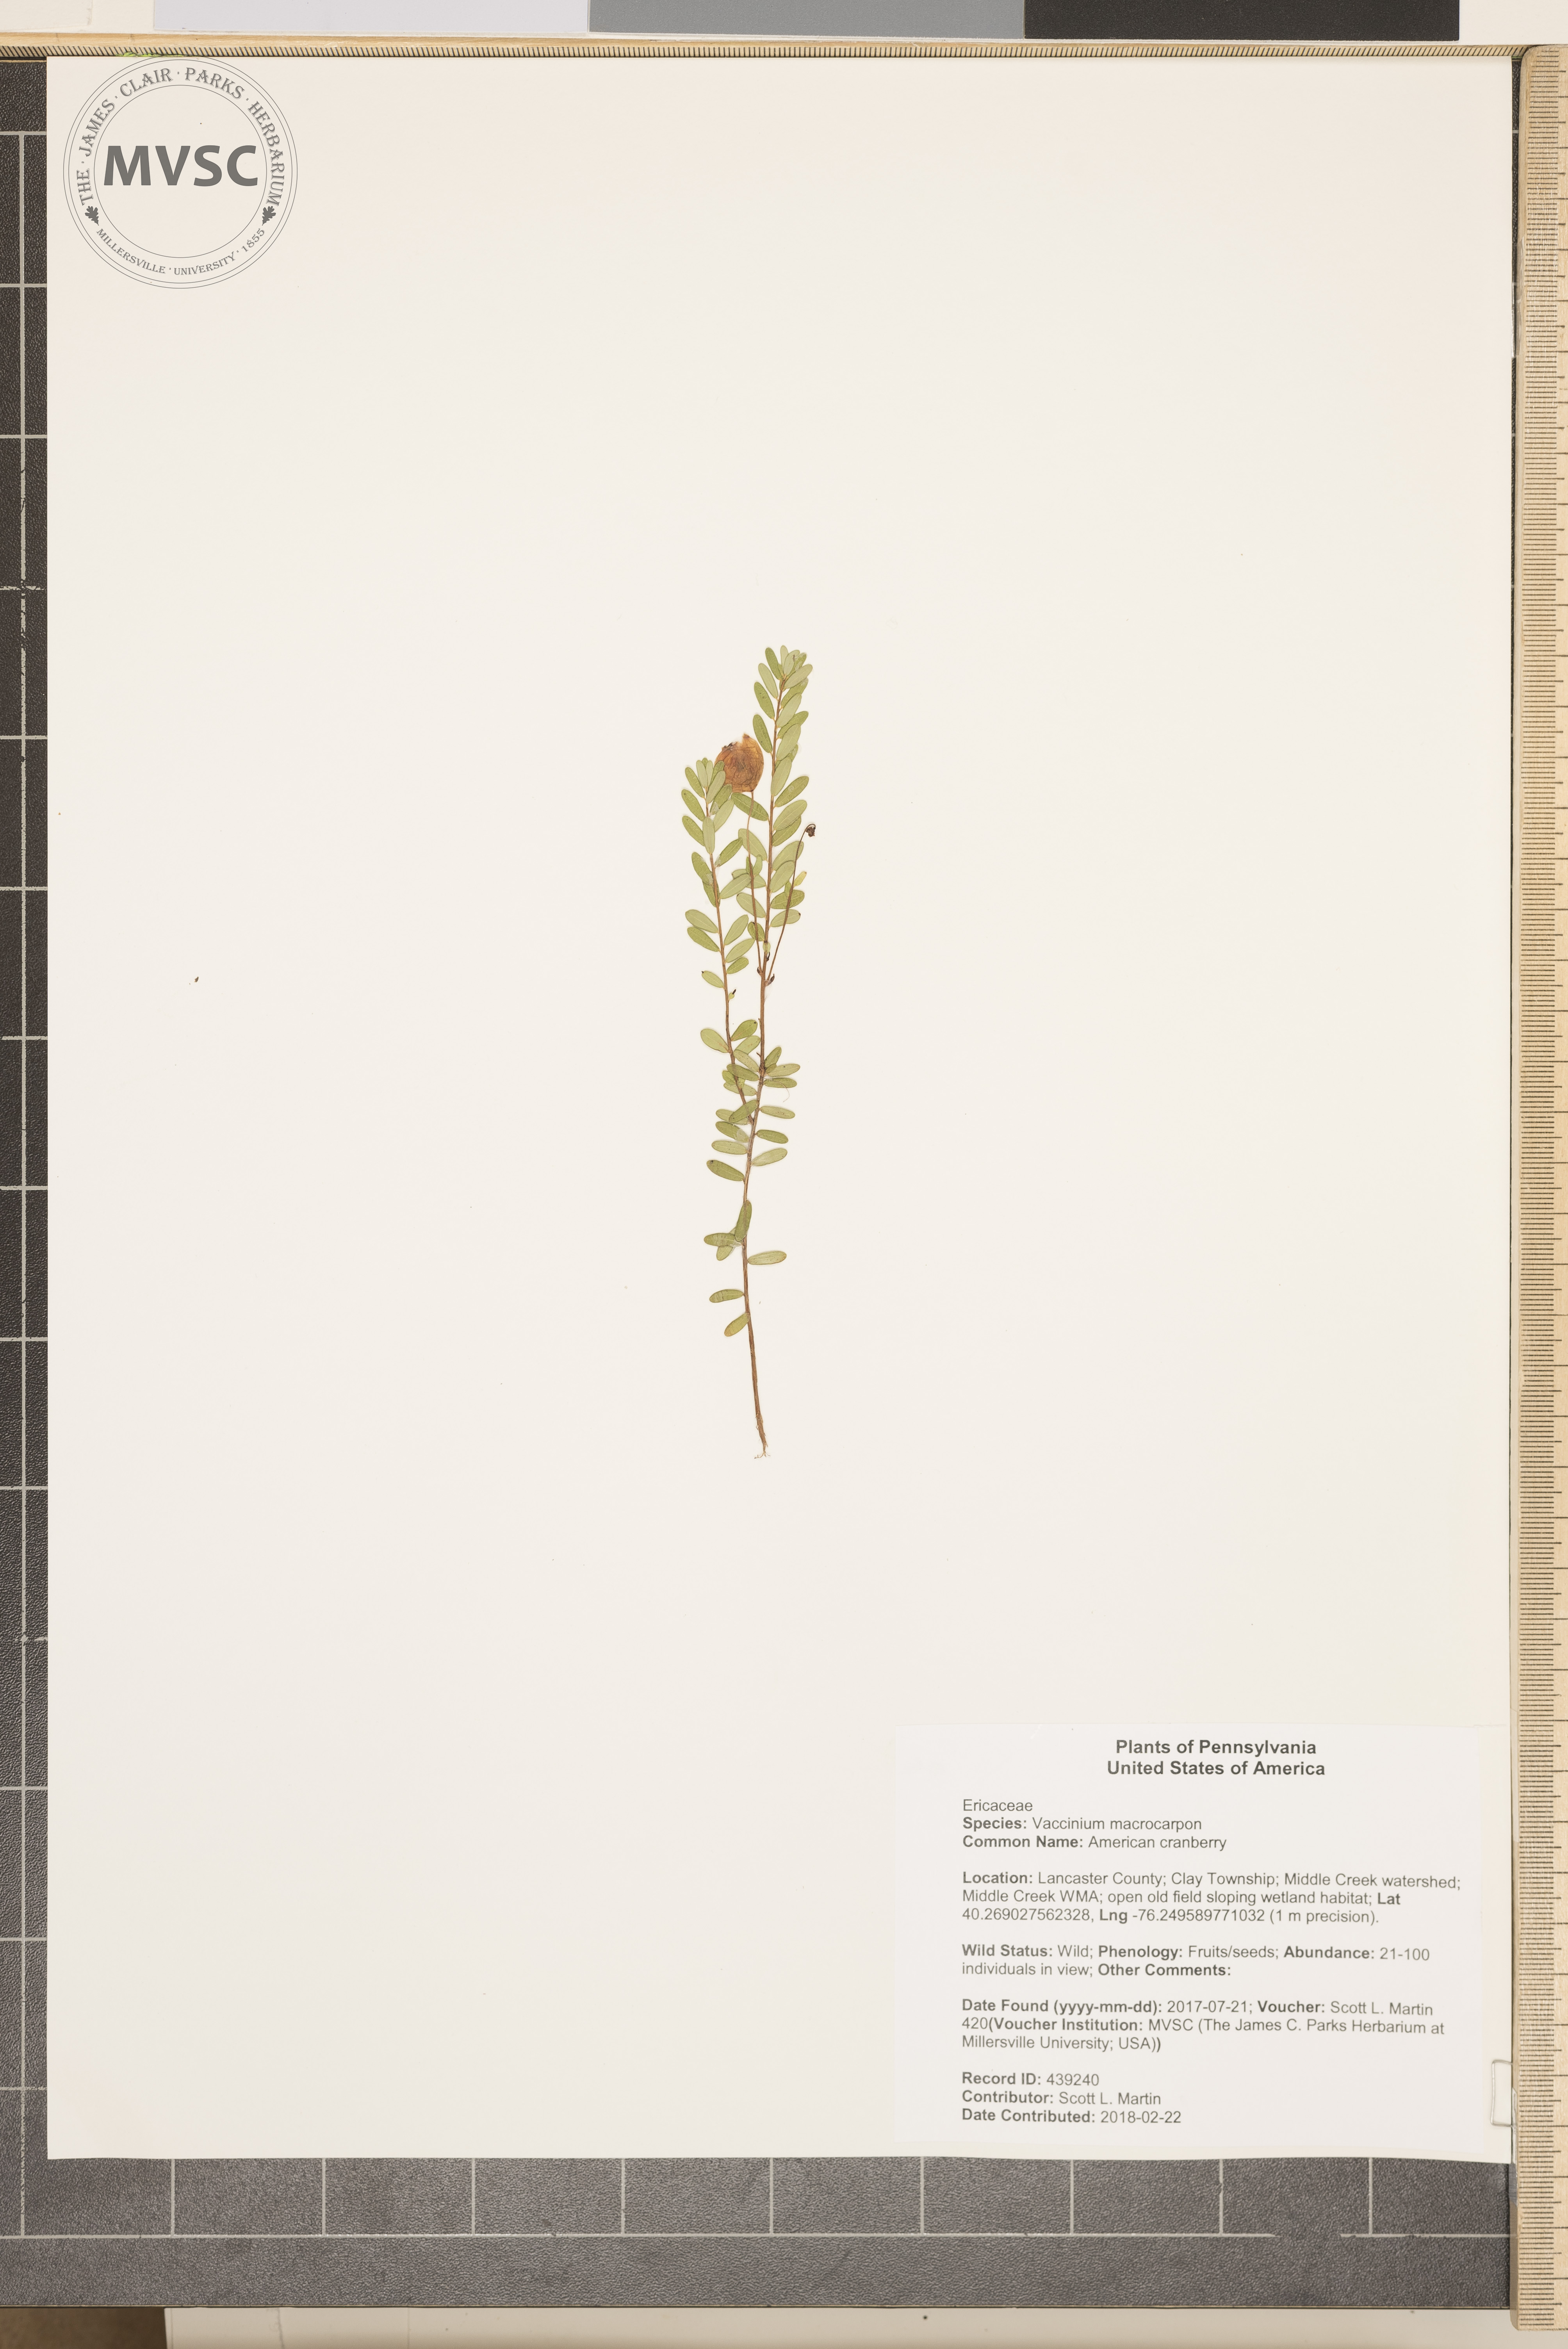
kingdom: Plantae
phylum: Tracheophyta
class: Magnoliopsida
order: Ericales
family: Ericaceae
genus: Vaccinium
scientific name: Vaccinium macrocarpon
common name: American cranberry
